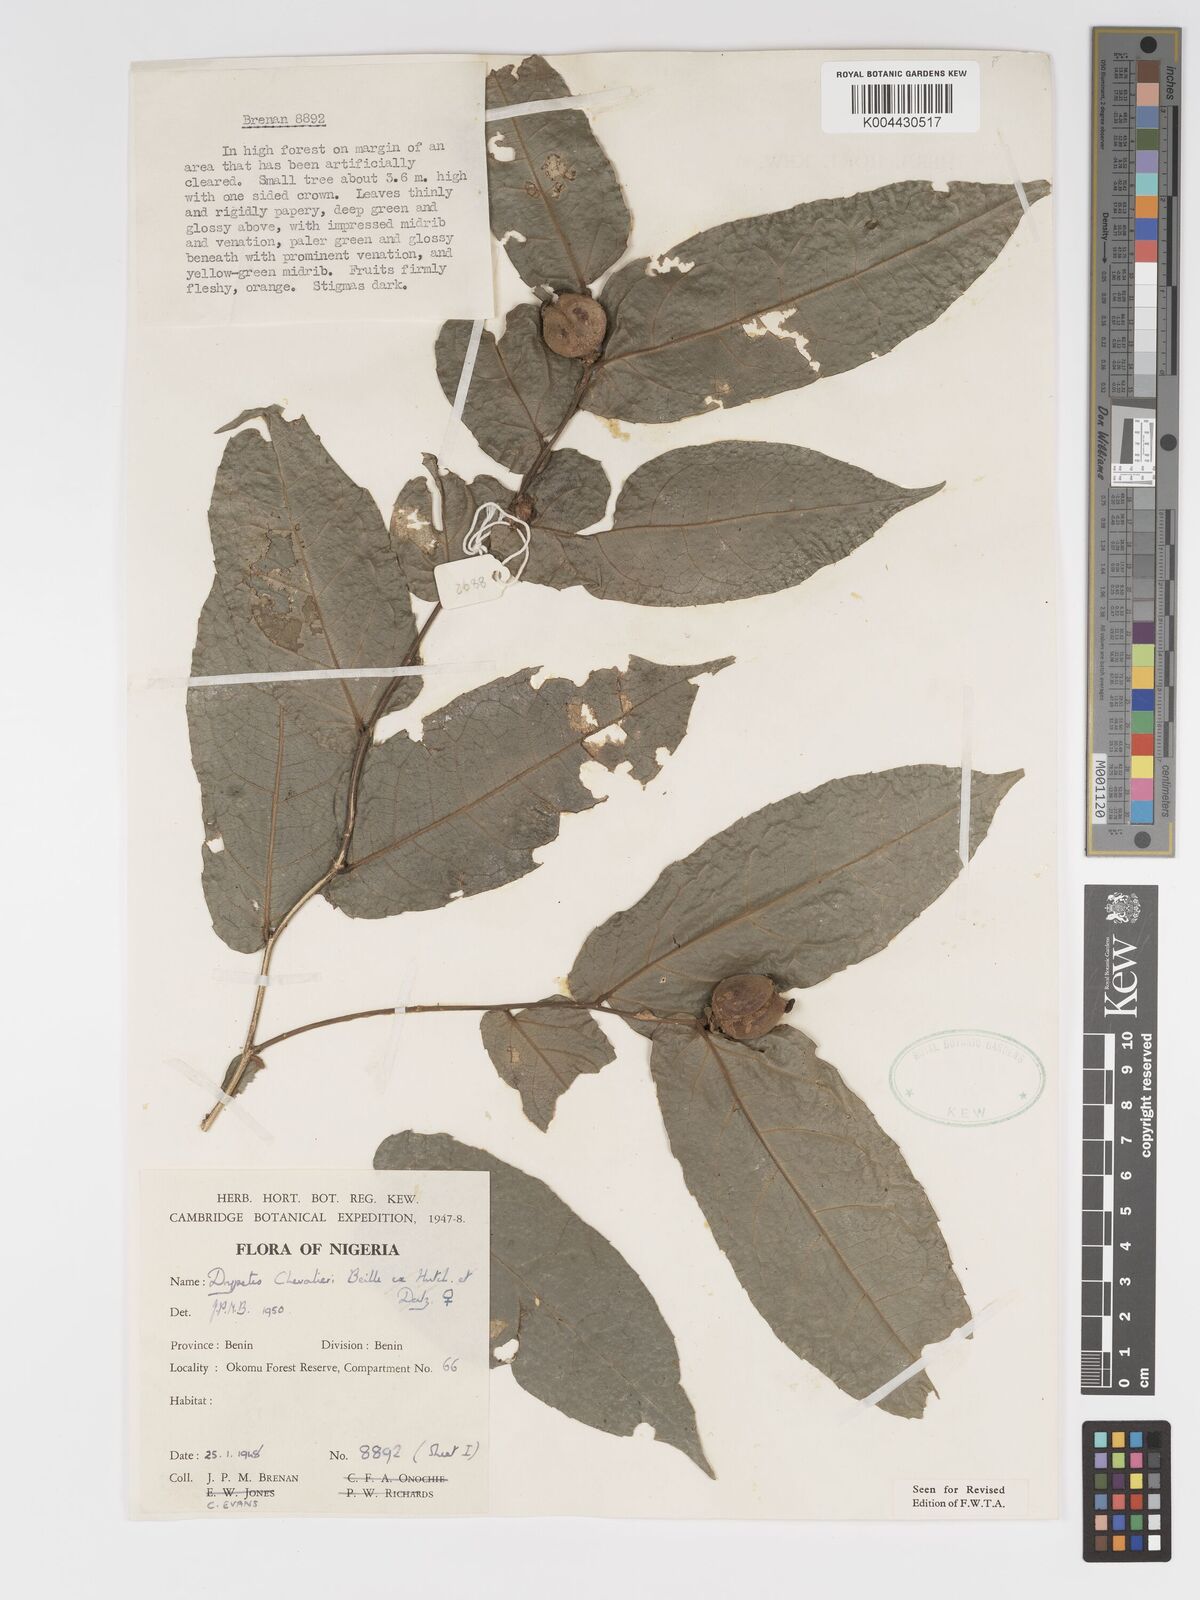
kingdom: Plantae
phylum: Tracheophyta
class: Magnoliopsida
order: Malpighiales
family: Putranjivaceae
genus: Drypetes
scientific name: Drypetes chevalieri
